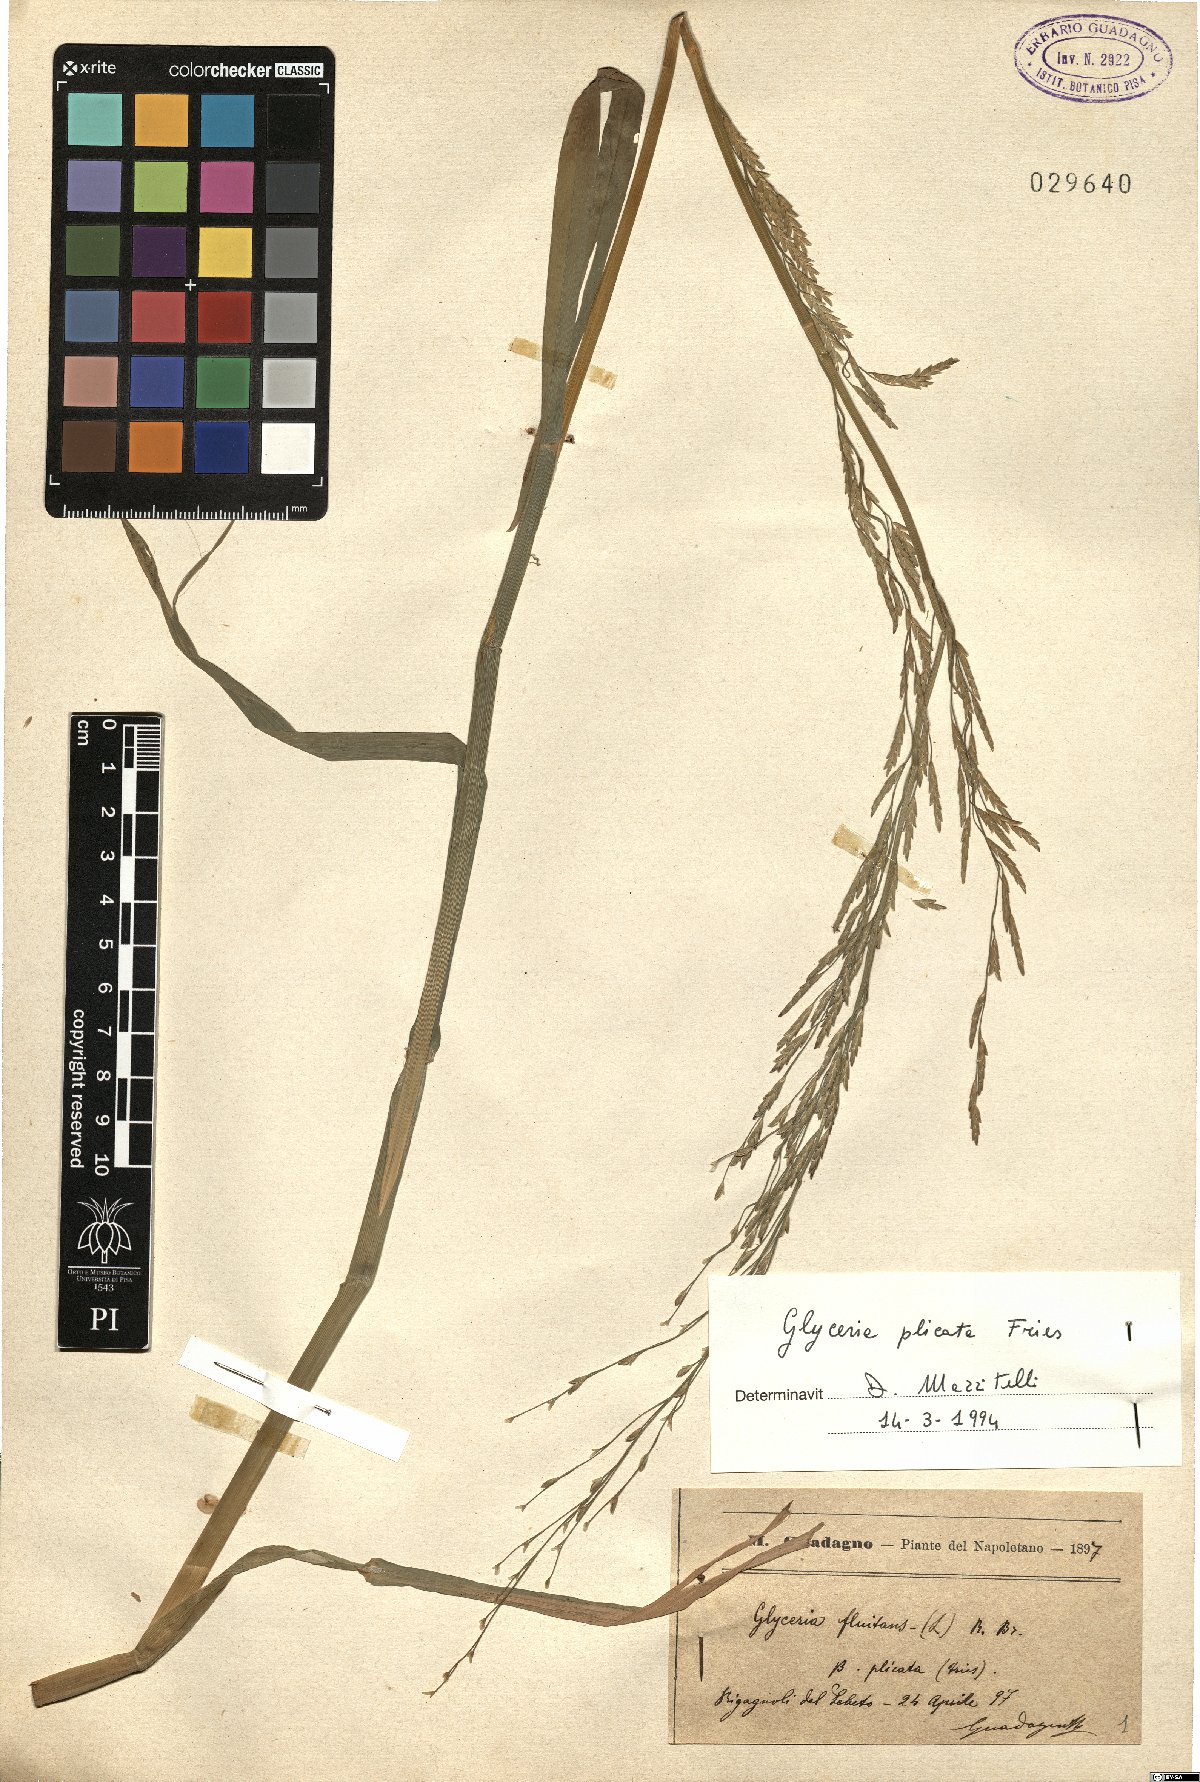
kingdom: Plantae
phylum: Tracheophyta
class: Liliopsida
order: Poales
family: Poaceae
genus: Glyceria
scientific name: Glyceria notata
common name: Plicate sweet-grass
